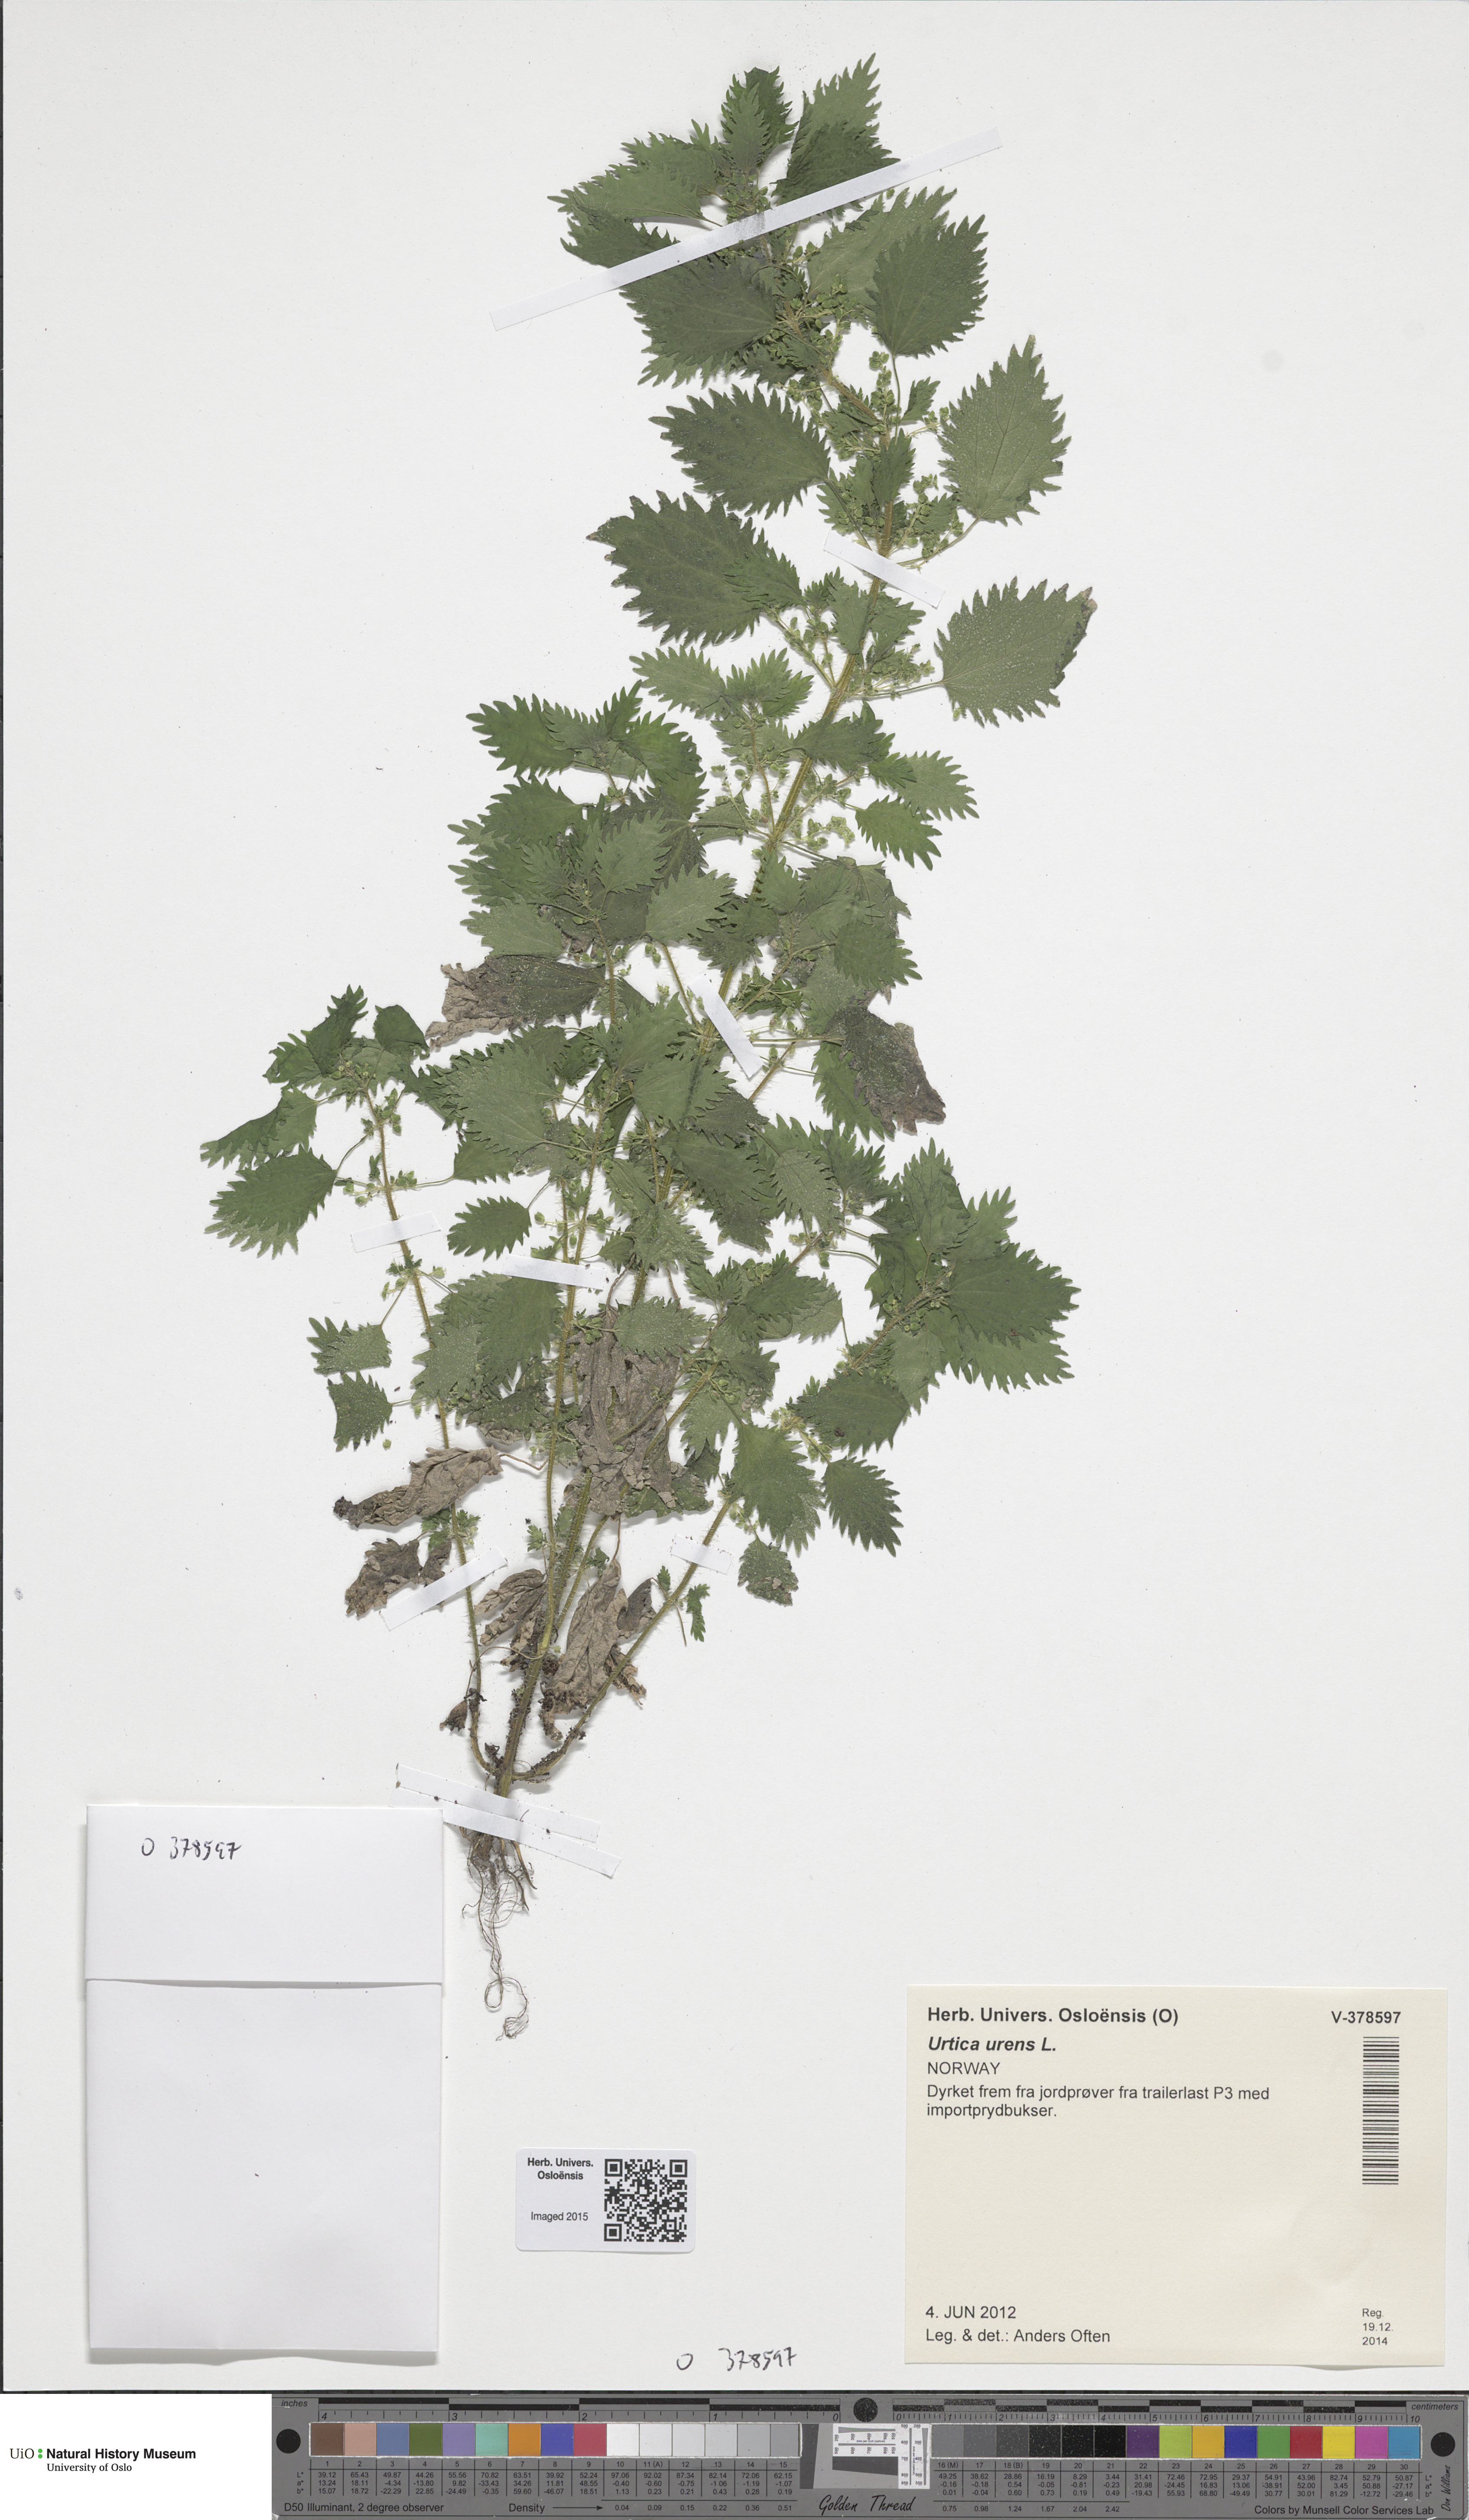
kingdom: Plantae
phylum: Tracheophyta
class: Magnoliopsida
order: Rosales
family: Urticaceae
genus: Urtica
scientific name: Urtica urens
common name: Dwarf nettle
